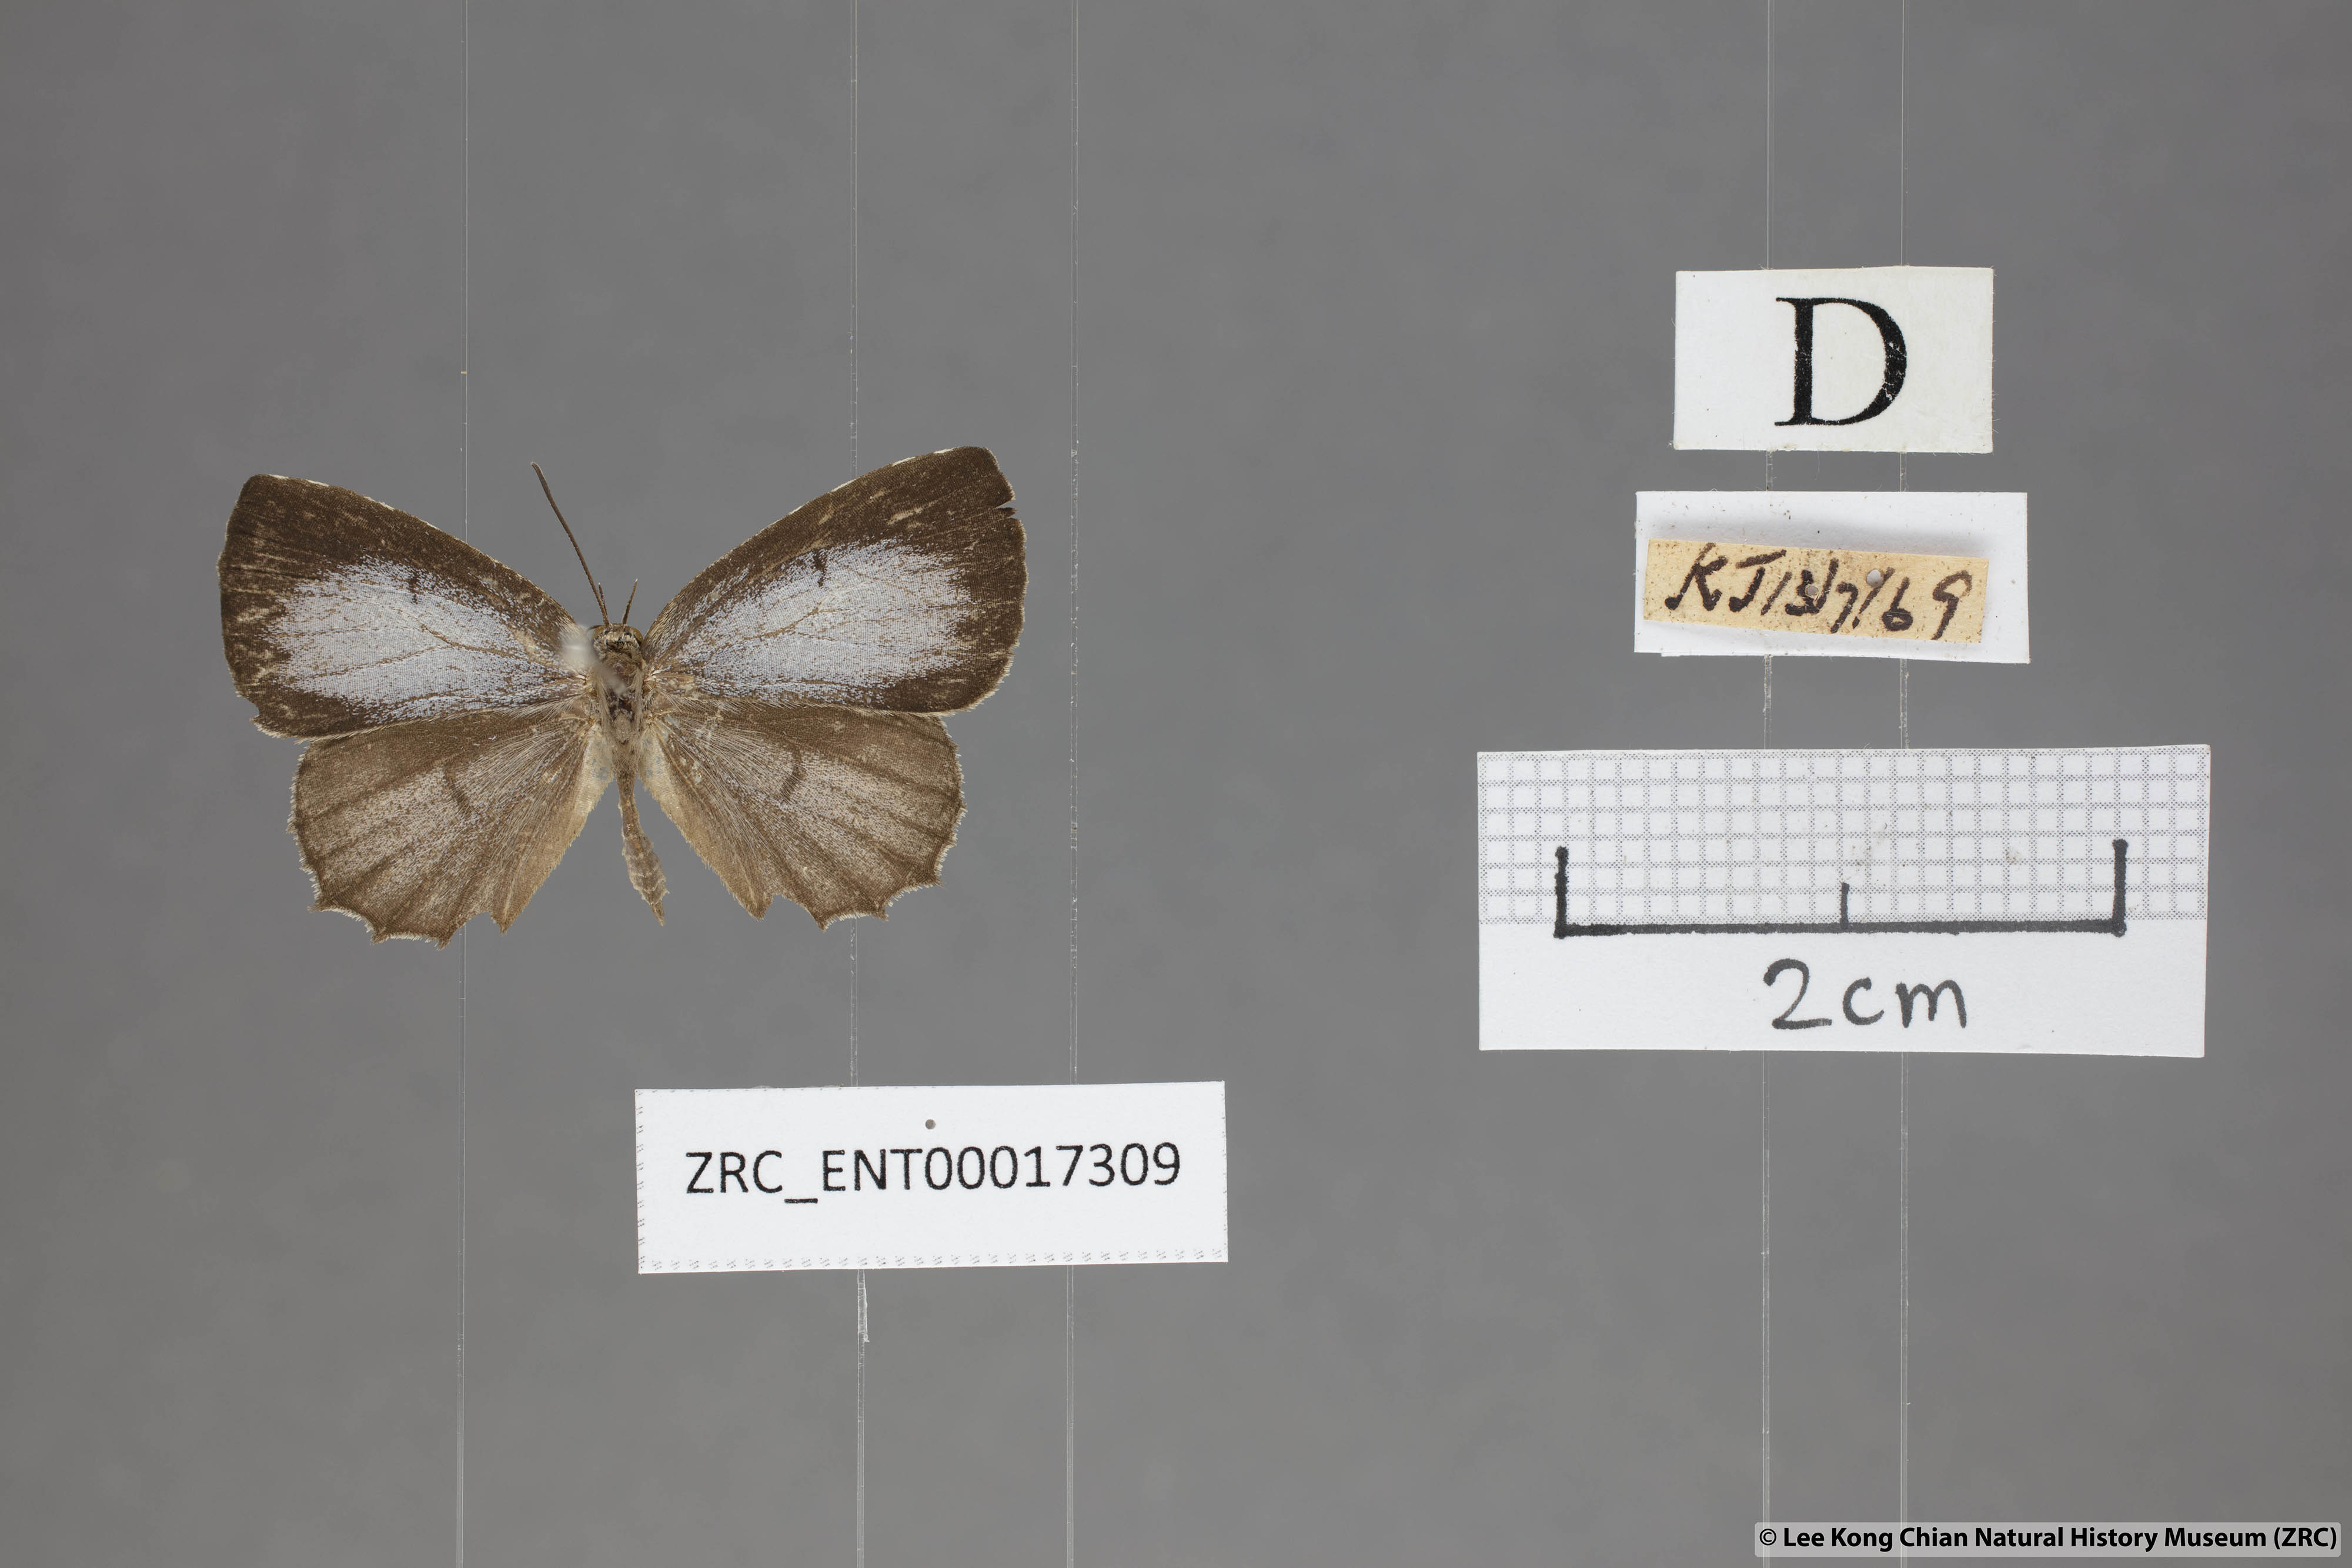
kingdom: Animalia
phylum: Arthropoda
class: Insecta
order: Lepidoptera
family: Lycaenidae
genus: Allotinus
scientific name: Allotinus subviolaceus
